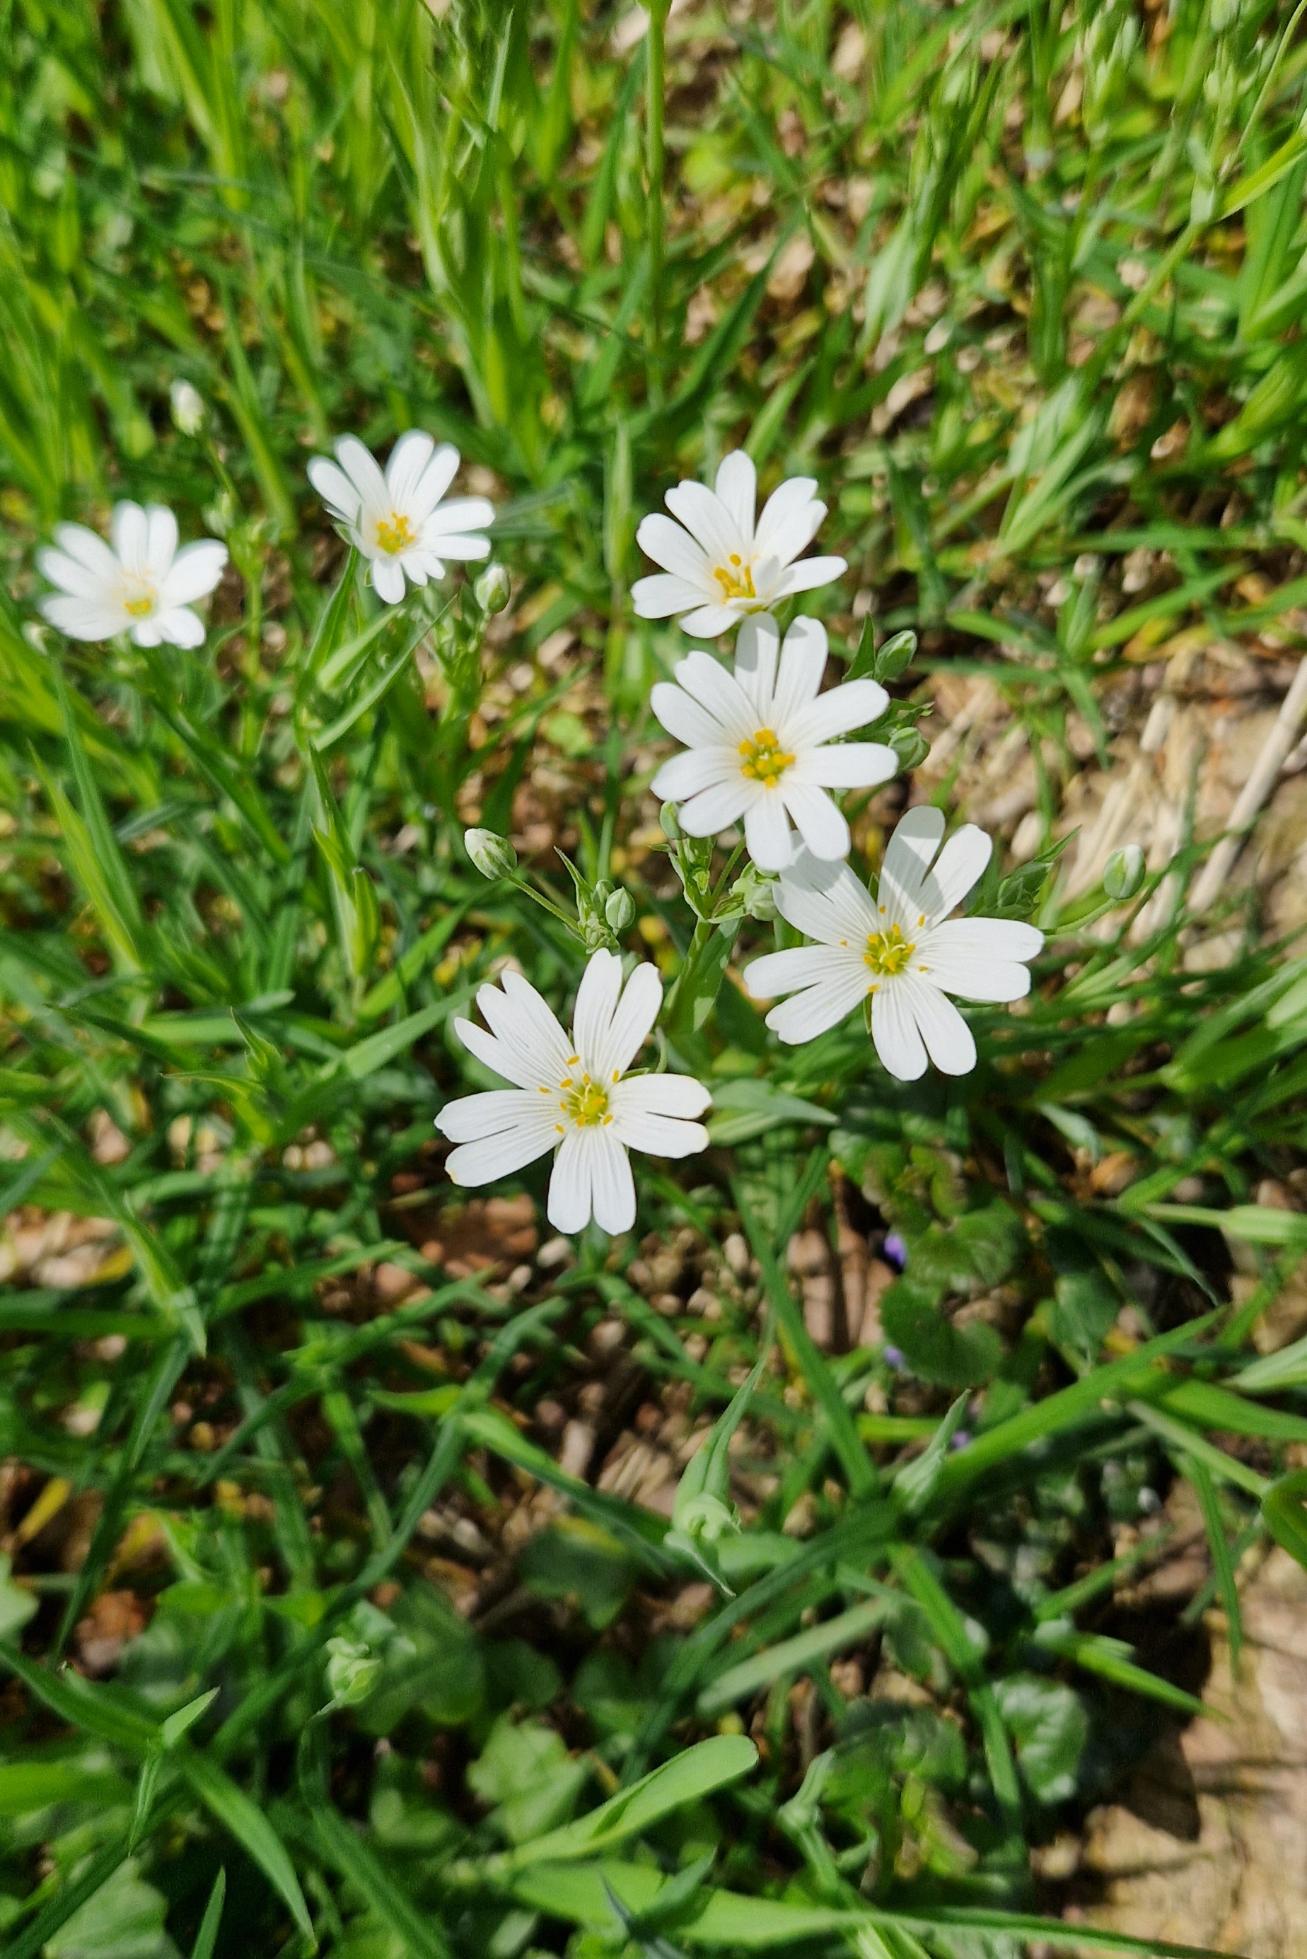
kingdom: Plantae
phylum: Tracheophyta
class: Magnoliopsida
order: Caryophyllales
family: Caryophyllaceae
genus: Rabelera
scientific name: Rabelera holostea
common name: Stor fladstjerne
